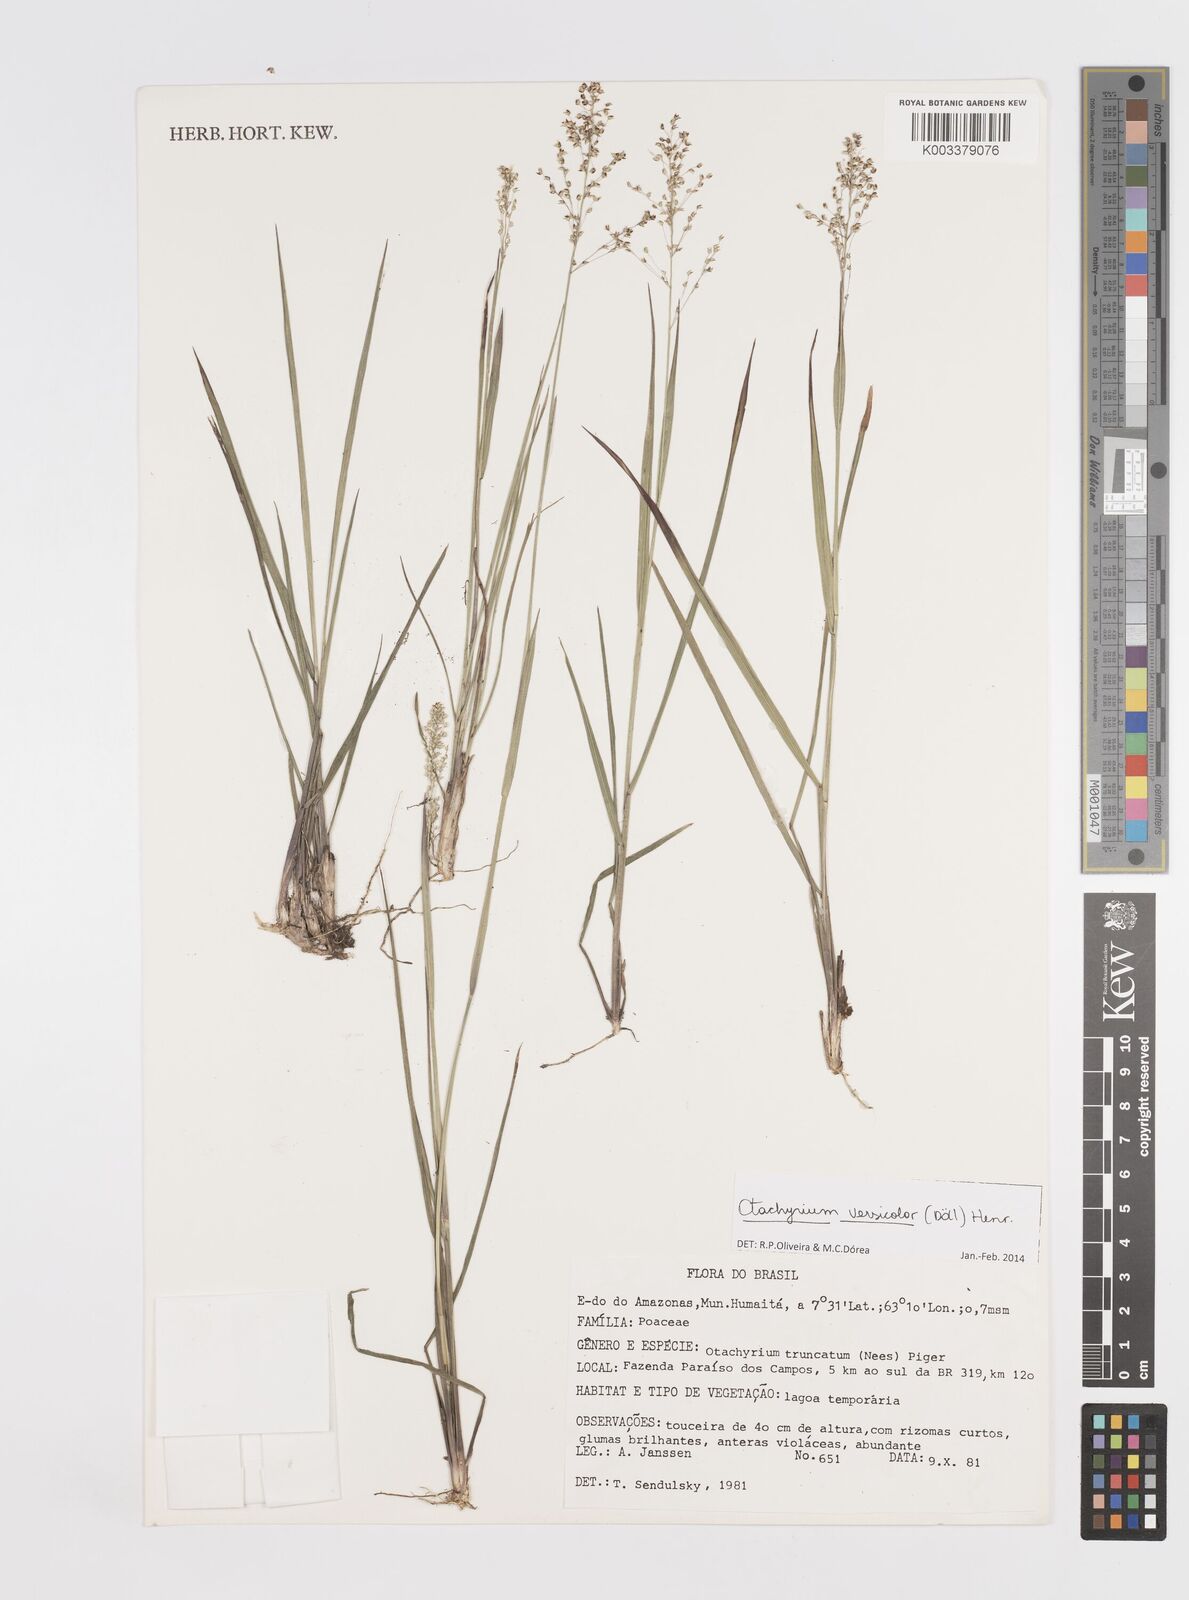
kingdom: Plantae
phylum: Tracheophyta
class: Liliopsida
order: Poales
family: Poaceae
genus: Otachyrium
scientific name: Otachyrium versicolor
